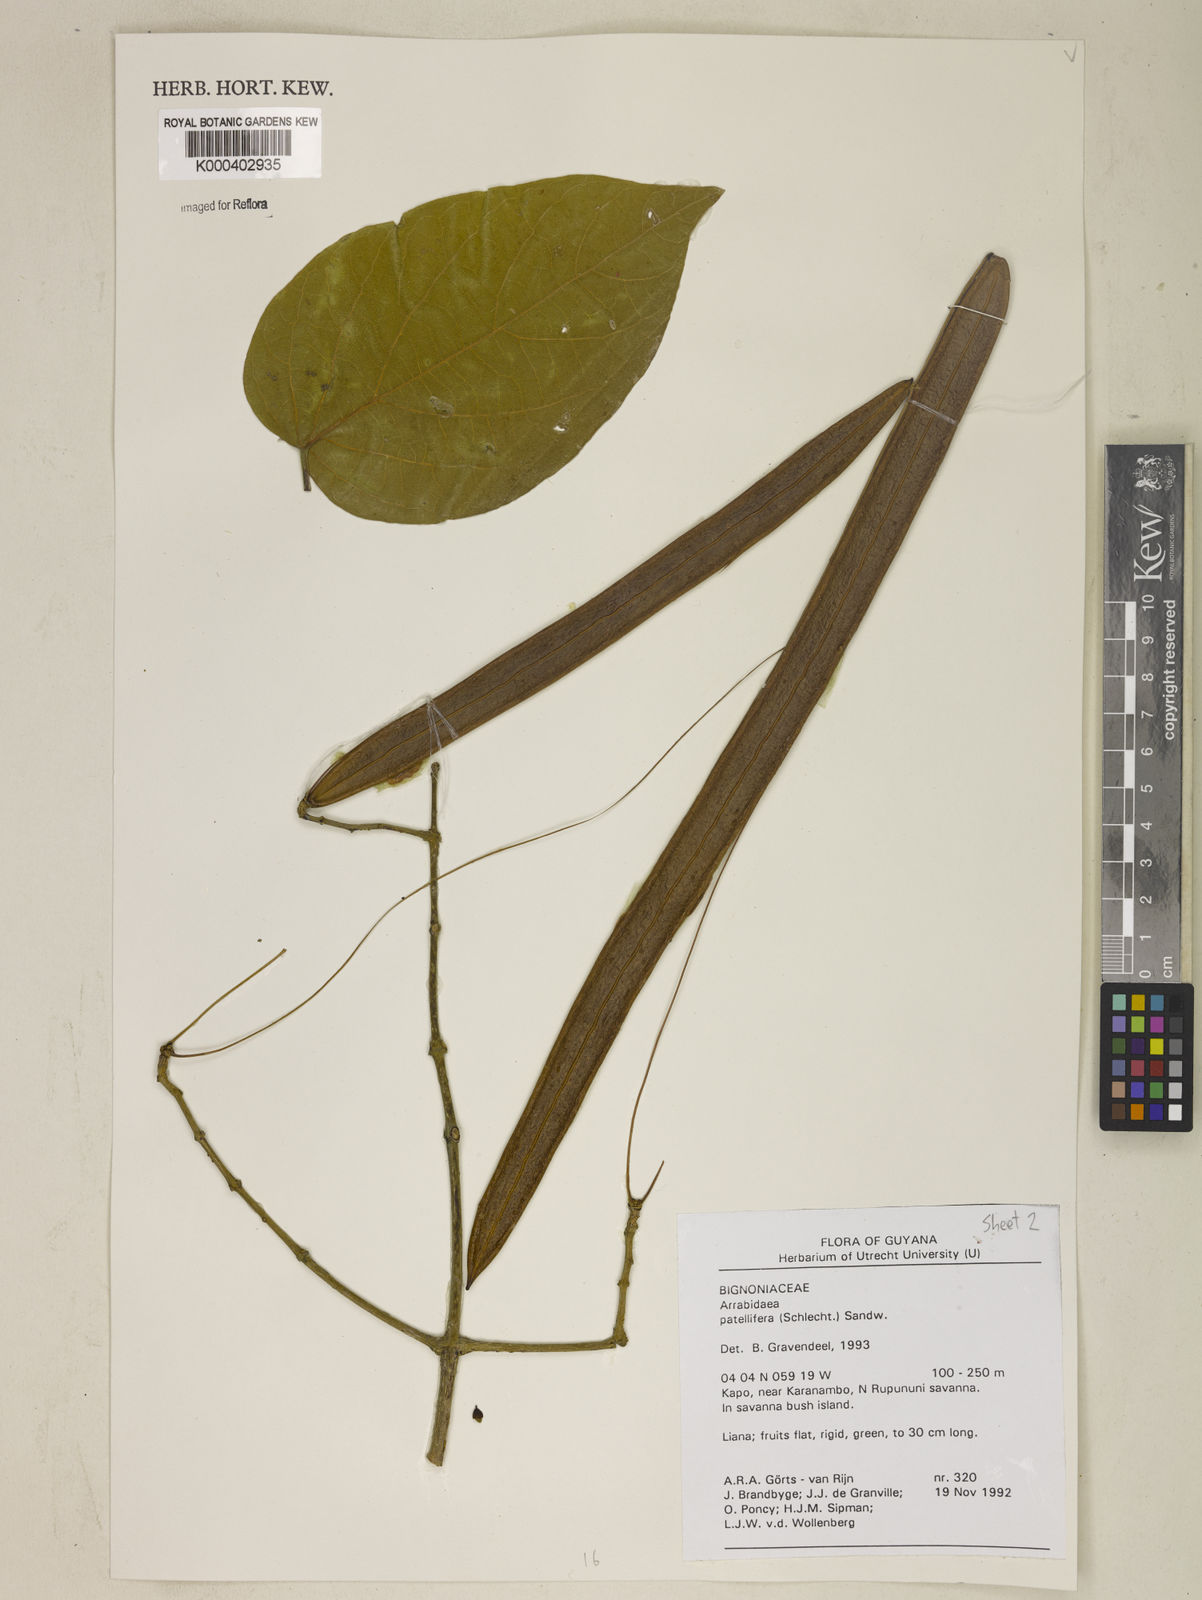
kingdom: Plantae
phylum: Tracheophyta
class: Magnoliopsida
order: Lamiales
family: Bignoniaceae
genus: Fridericia
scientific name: Fridericia patellifera
